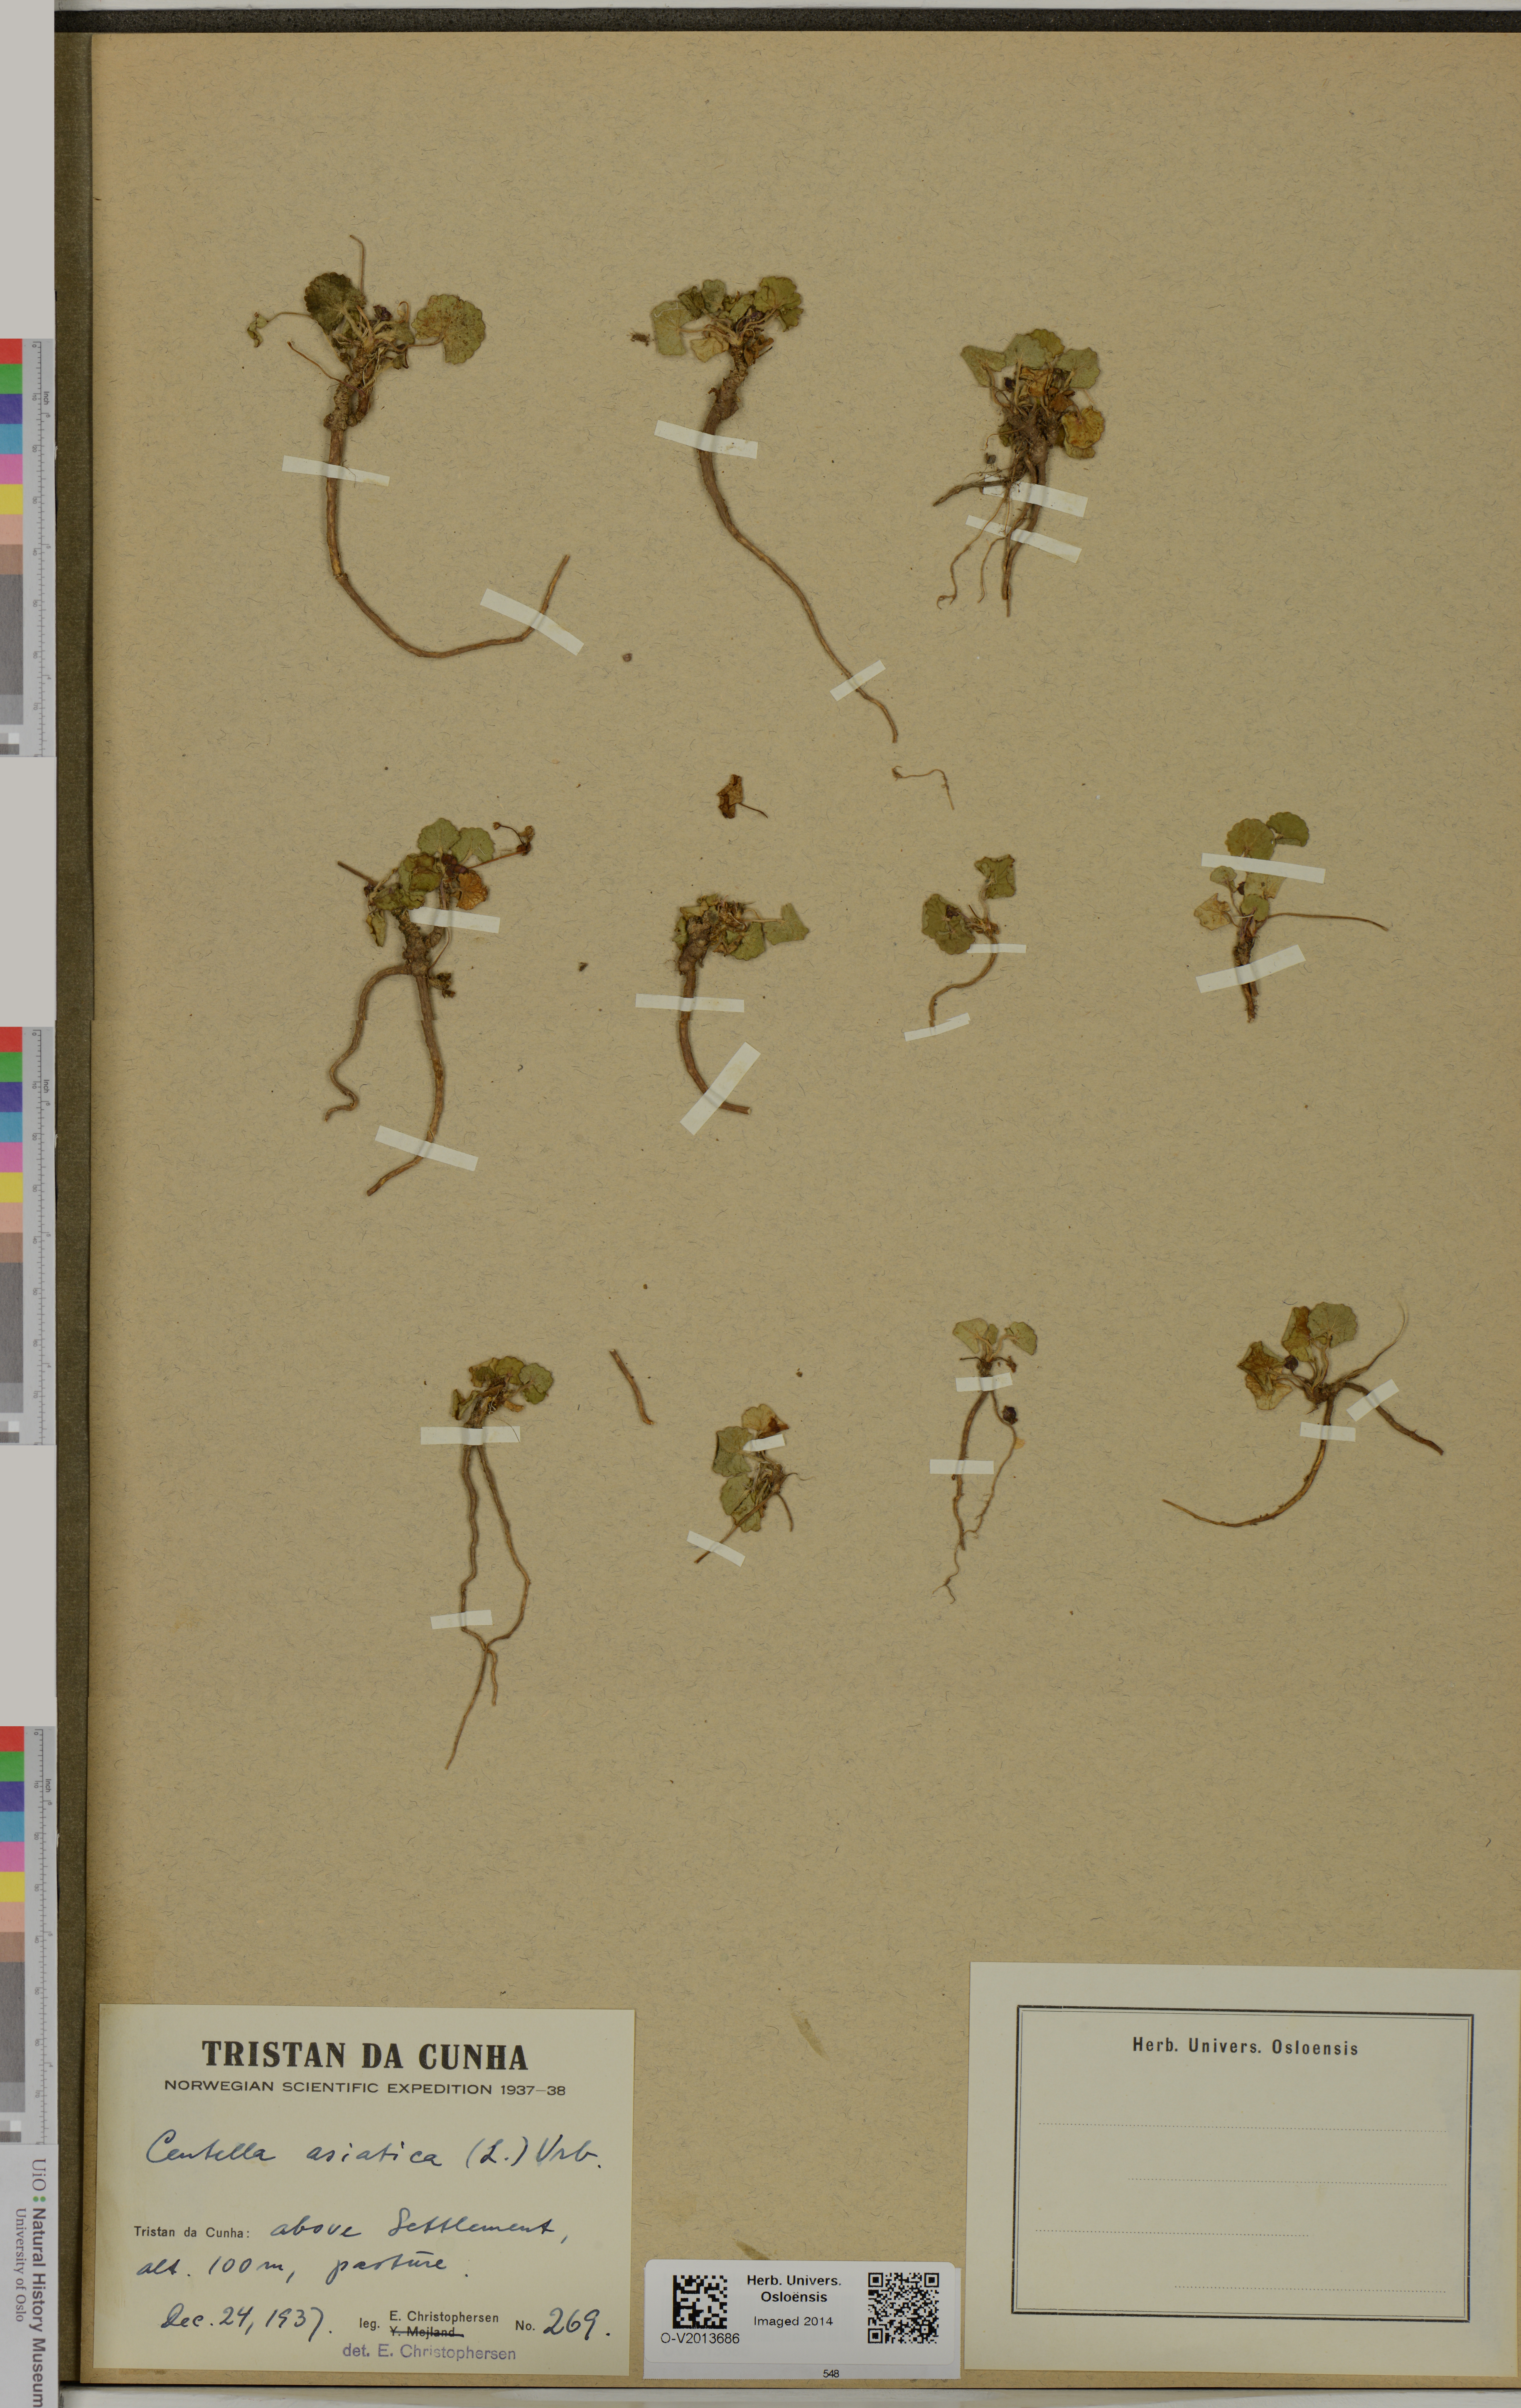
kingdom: Plantae
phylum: Tracheophyta
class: Magnoliopsida
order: Apiales
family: Apiaceae
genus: Centella
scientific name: Centella asiatica
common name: Spadeleaf
